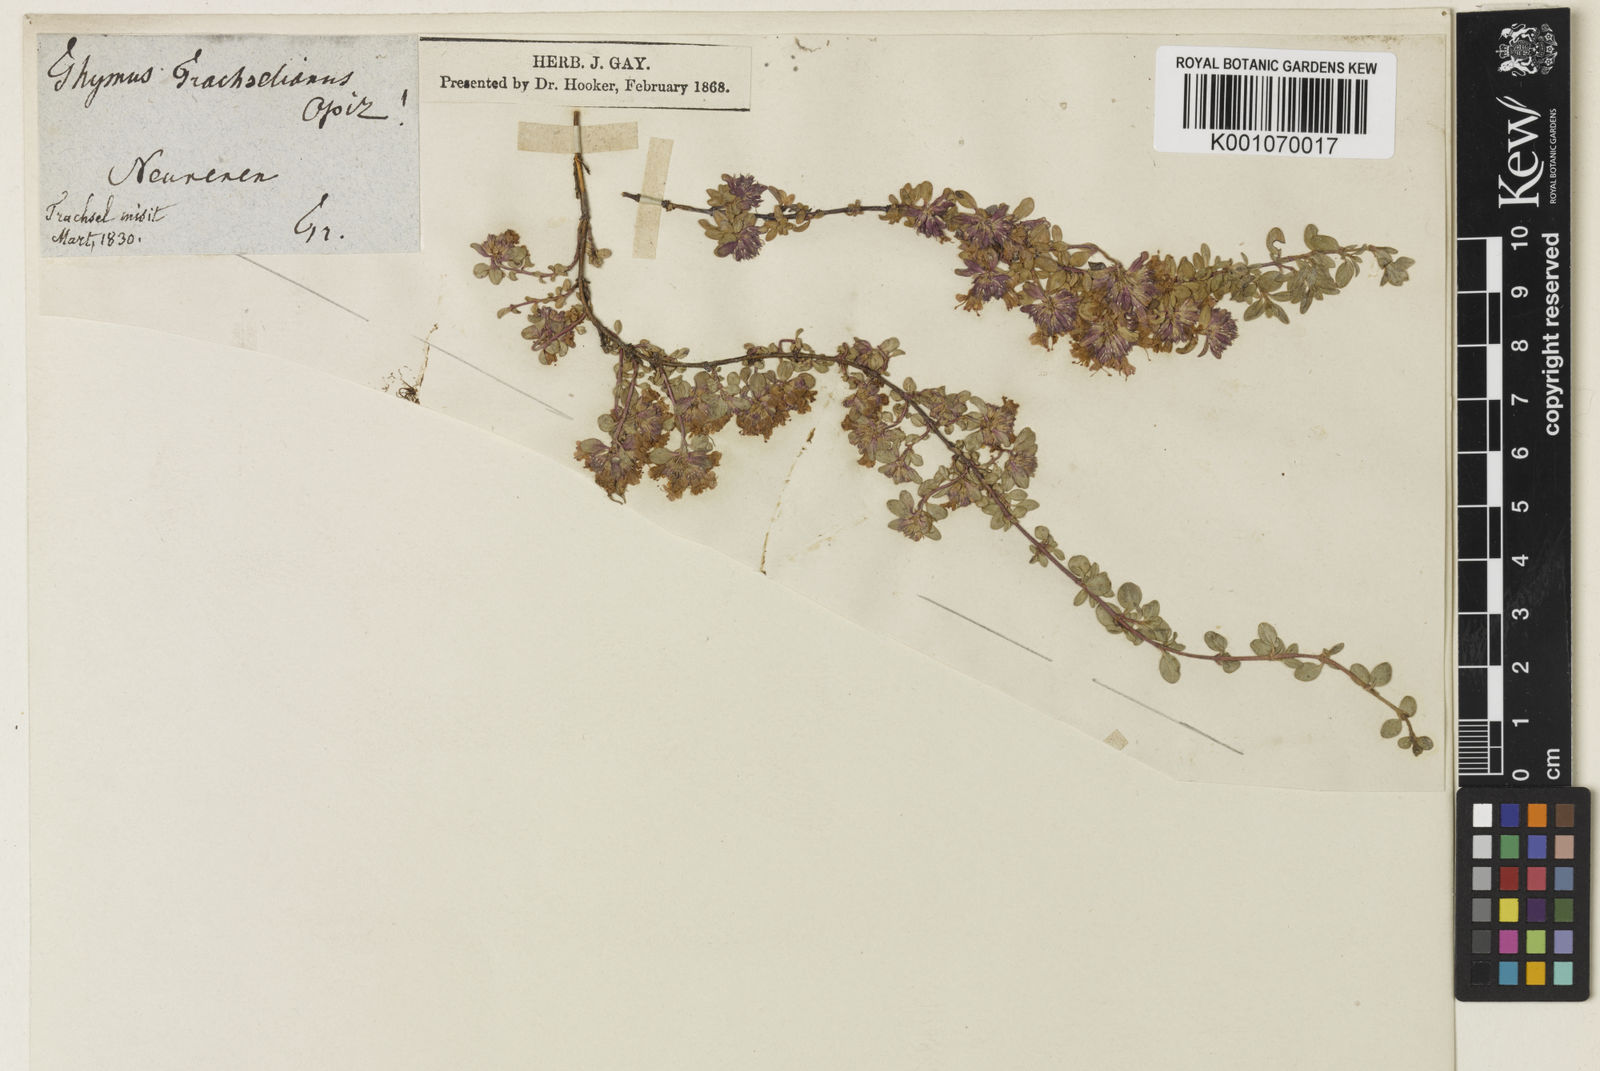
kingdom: Plantae
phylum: Tracheophyta
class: Magnoliopsida
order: Lamiales
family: Lamiaceae
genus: Thymus
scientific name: Thymus praecox
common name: Wild thyme
